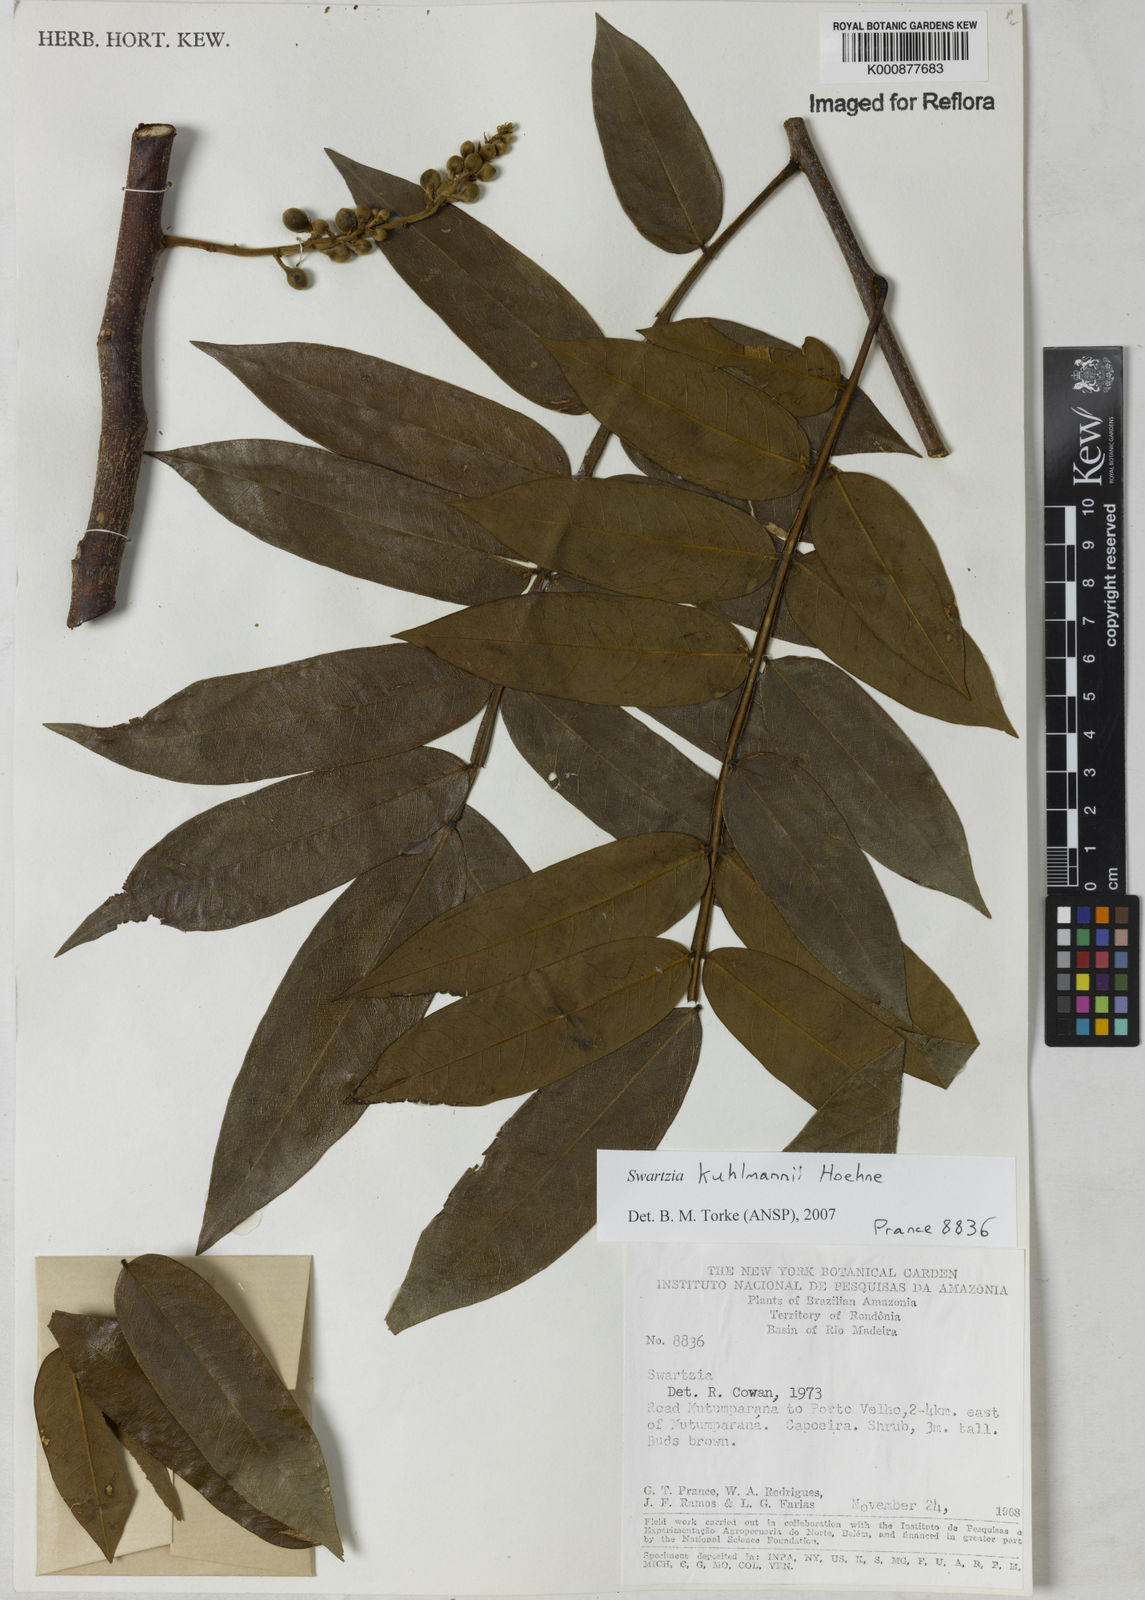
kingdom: Plantae
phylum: Tracheophyta
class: Magnoliopsida
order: Fabales
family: Fabaceae
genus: Swartzia
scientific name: Swartzia kuhlmannii
